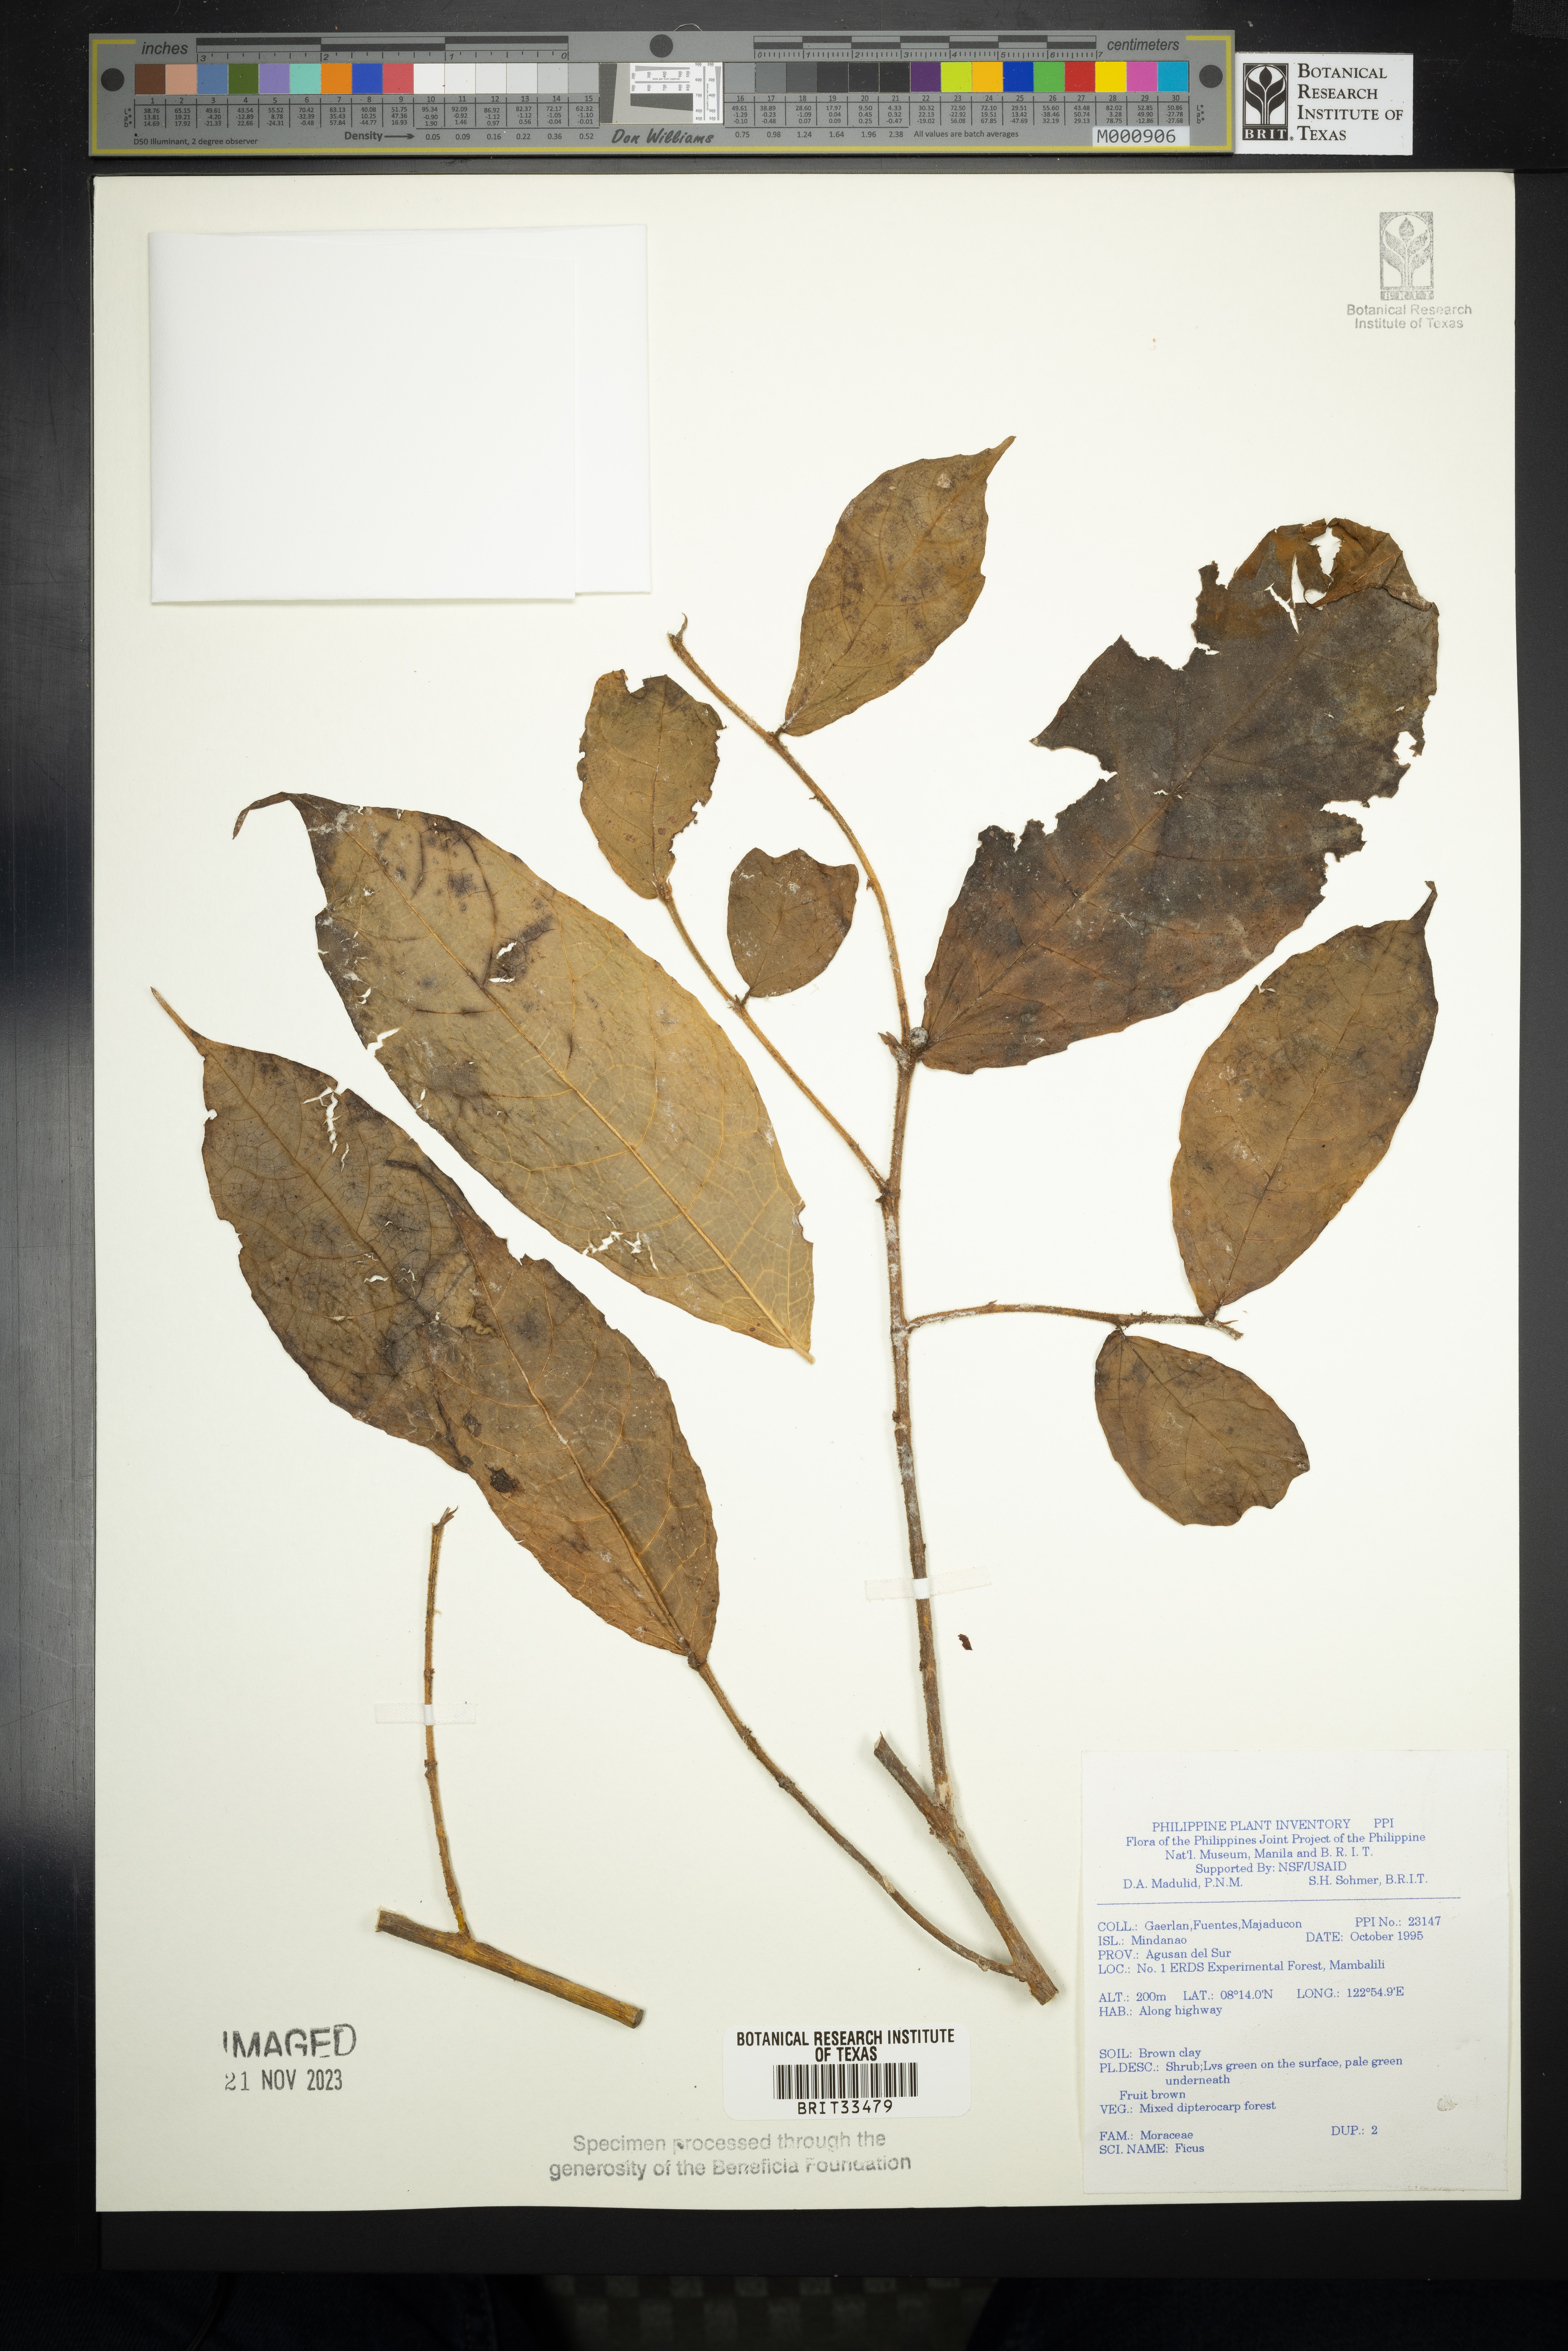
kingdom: Plantae
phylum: Tracheophyta
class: Magnoliopsida
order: Rosales
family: Moraceae
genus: Ficus
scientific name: Ficus
